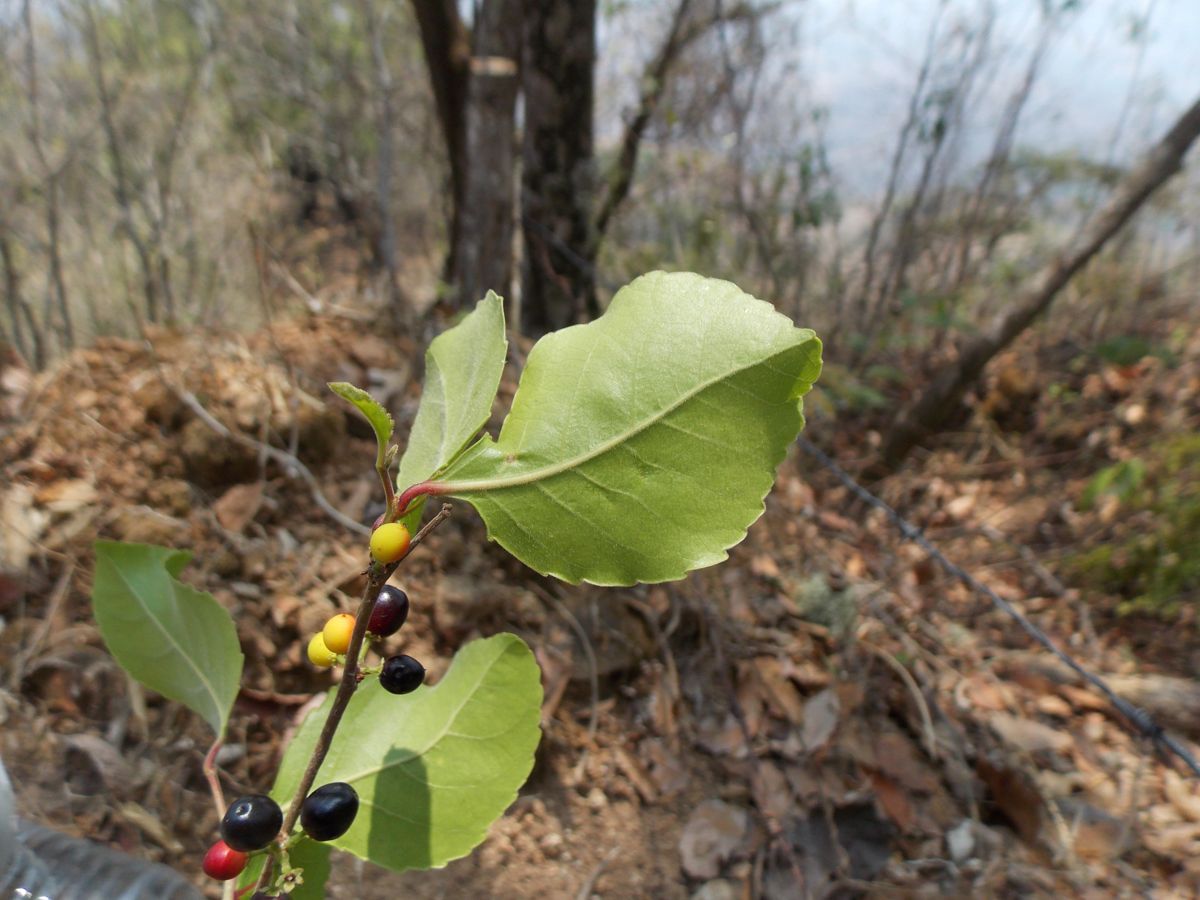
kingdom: Plantae
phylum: Tracheophyta
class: Magnoliopsida
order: Malpighiales
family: Salicaceae
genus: Xylosma
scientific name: Xylosma velutina
